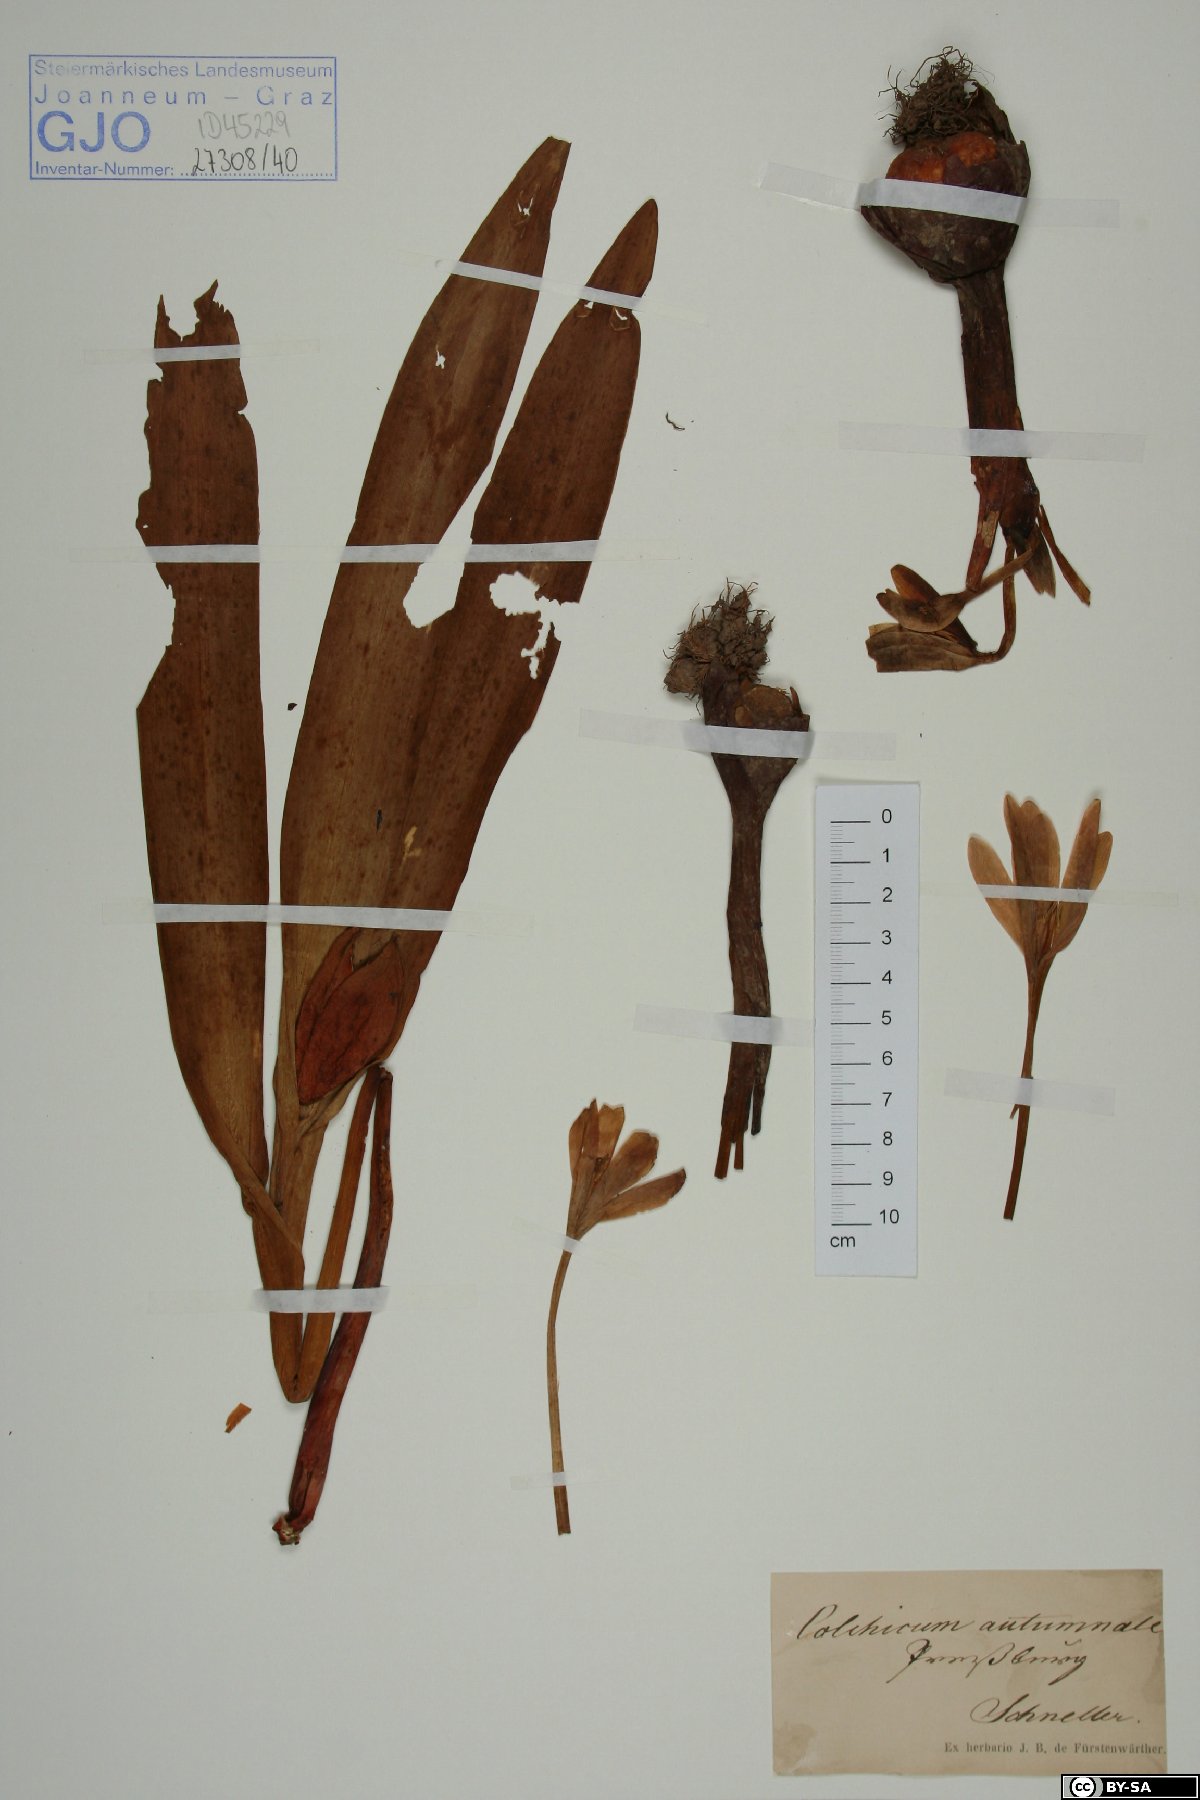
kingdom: Plantae
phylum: Tracheophyta
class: Liliopsida
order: Liliales
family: Colchicaceae
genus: Colchicum
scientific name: Colchicum autumnale
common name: Autumn crocus
